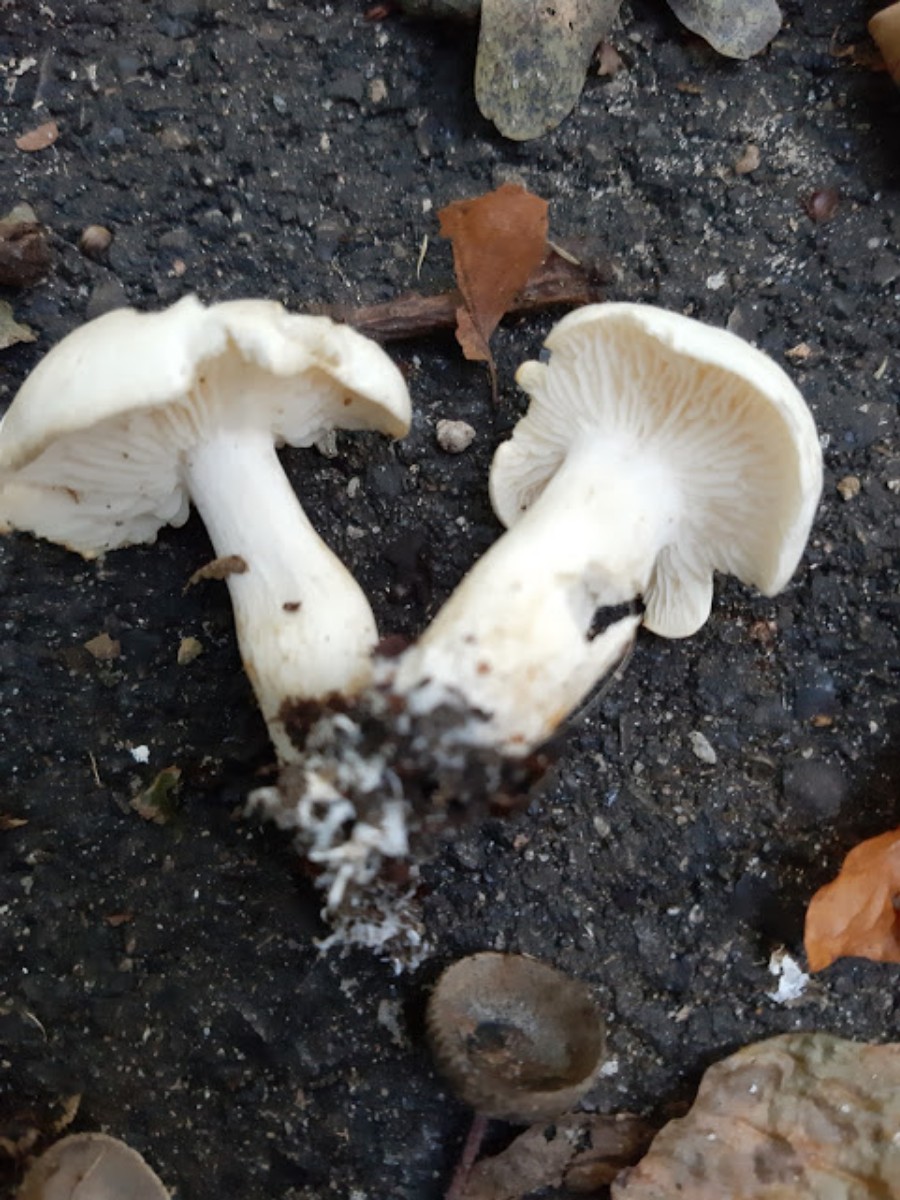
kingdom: Fungi
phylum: Basidiomycota
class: Agaricomycetes
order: Agaricales
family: Tricholomataceae
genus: Tricholoma
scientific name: Tricholoma
